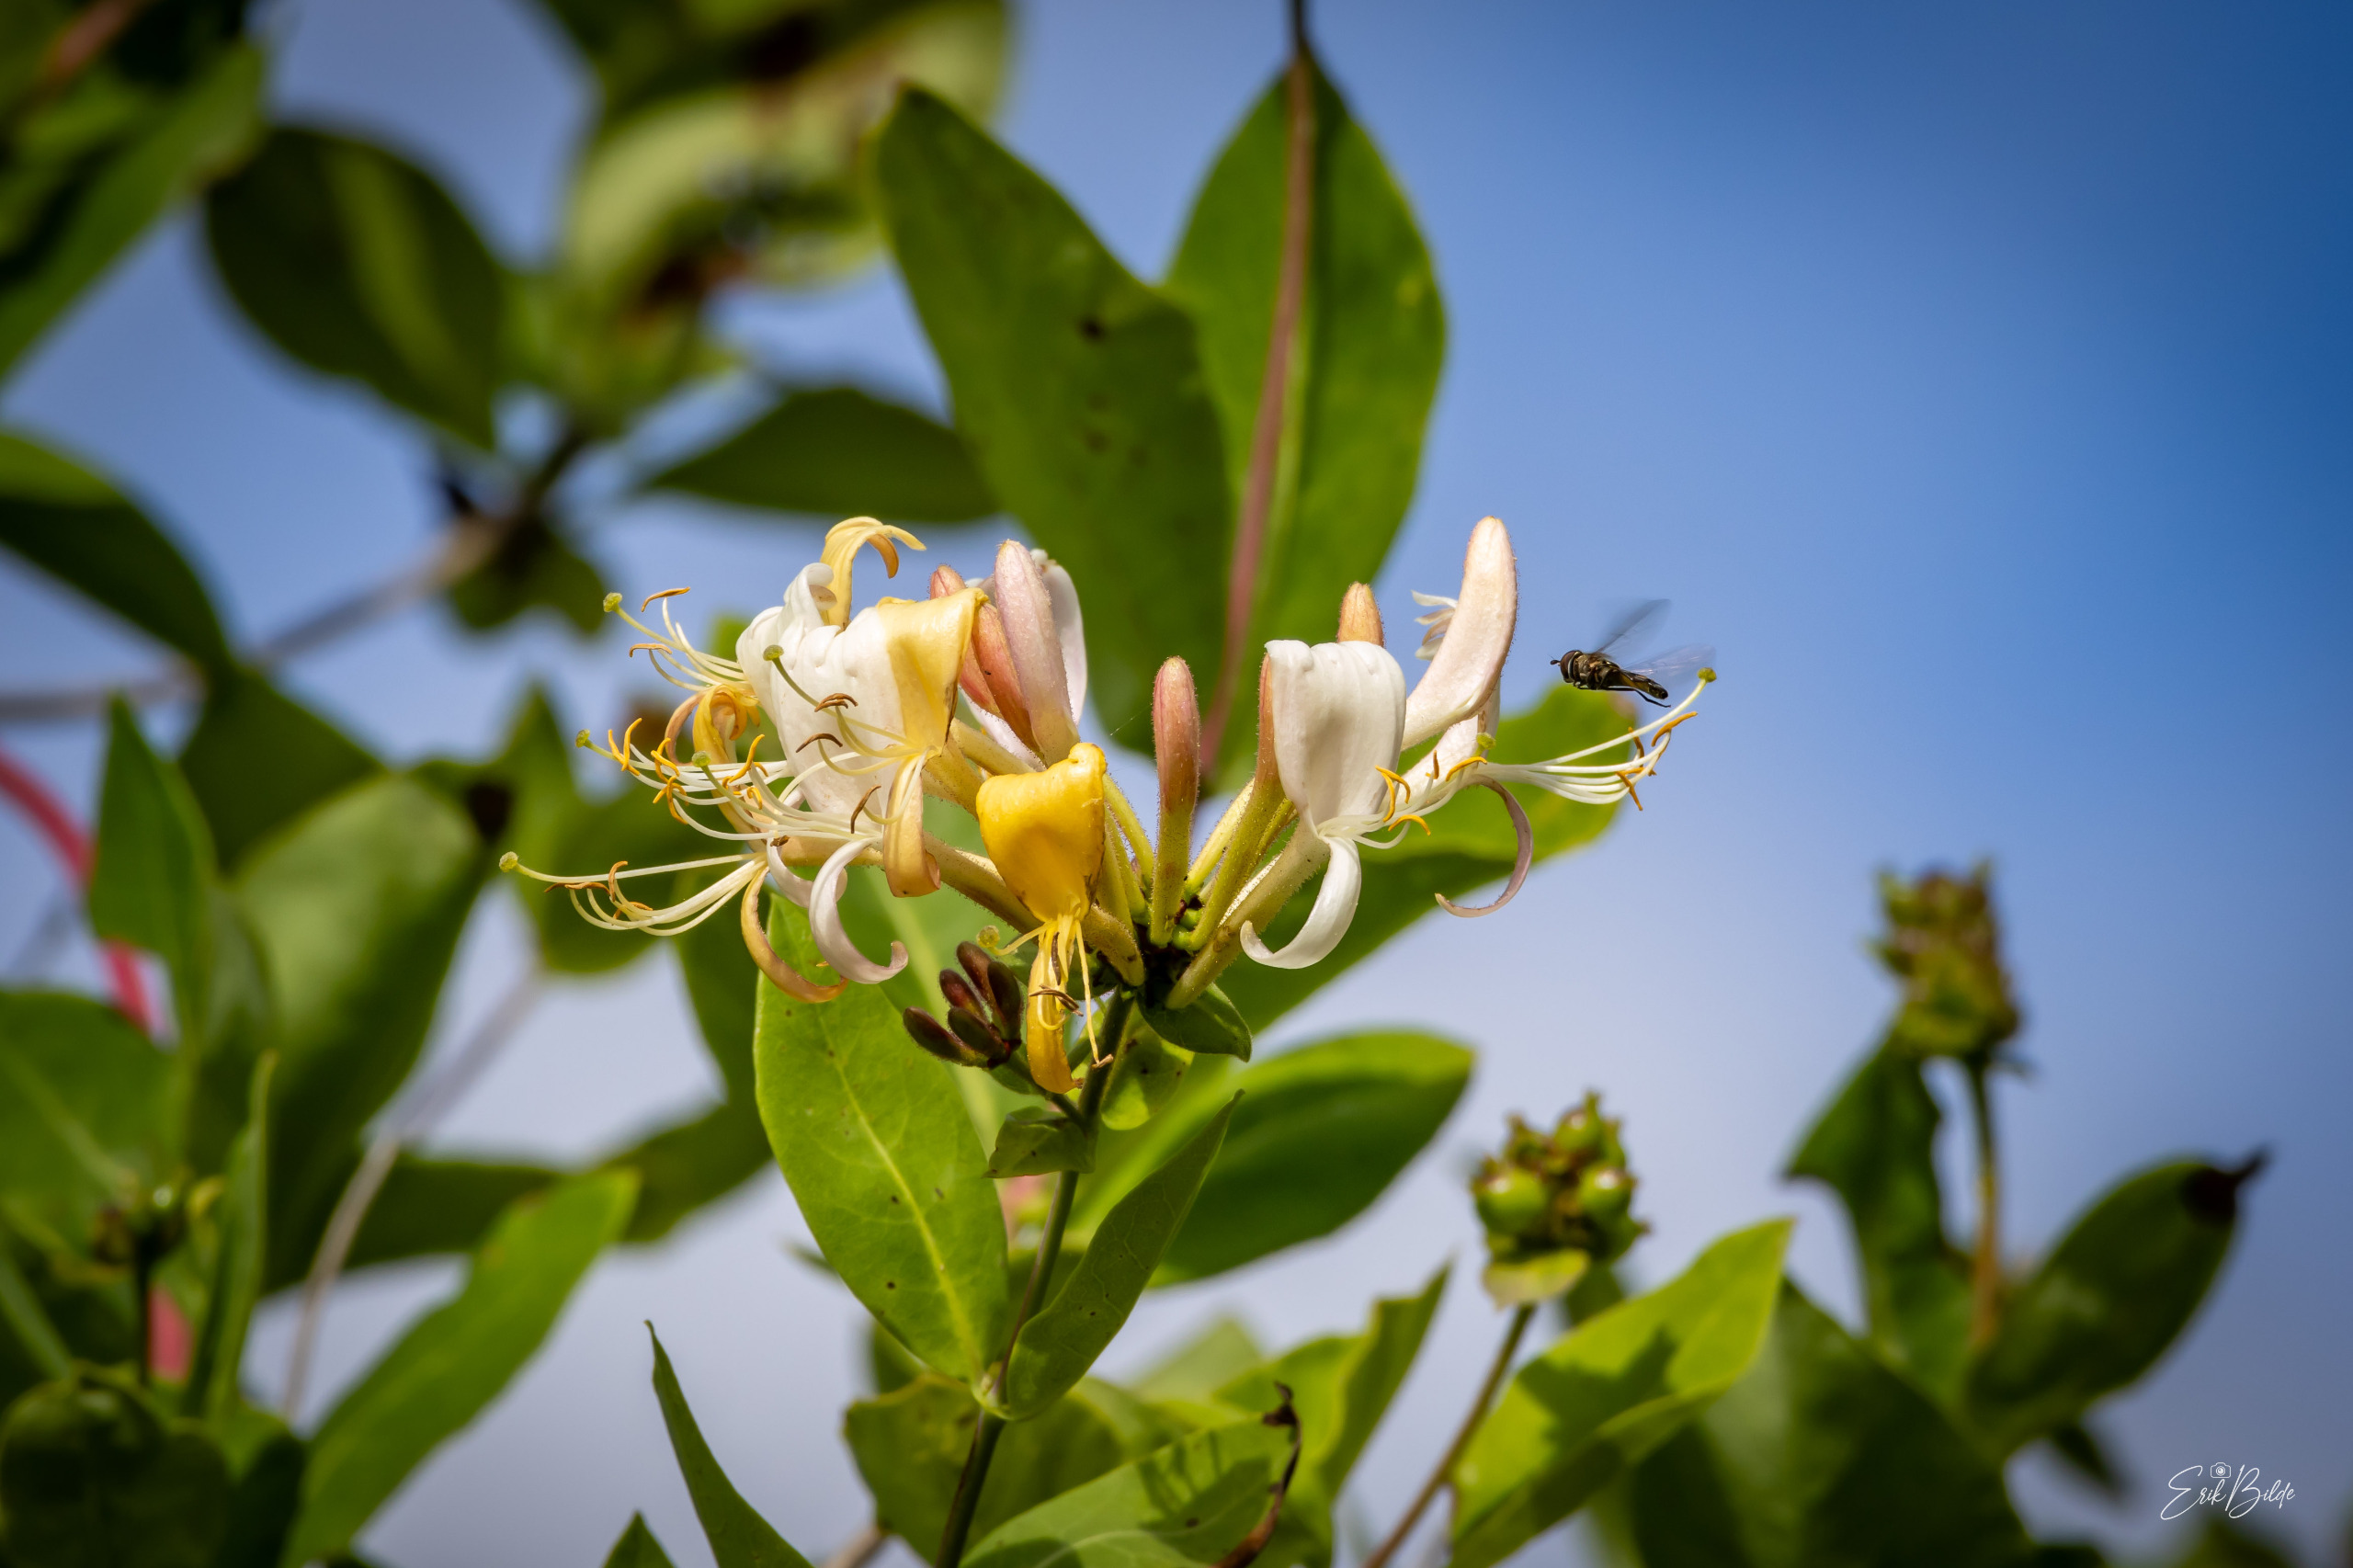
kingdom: Plantae
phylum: Tracheophyta
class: Magnoliopsida
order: Dipsacales
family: Caprifoliaceae
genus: Lonicera
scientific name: Lonicera periclymenum
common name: Almindelig gedeblad
